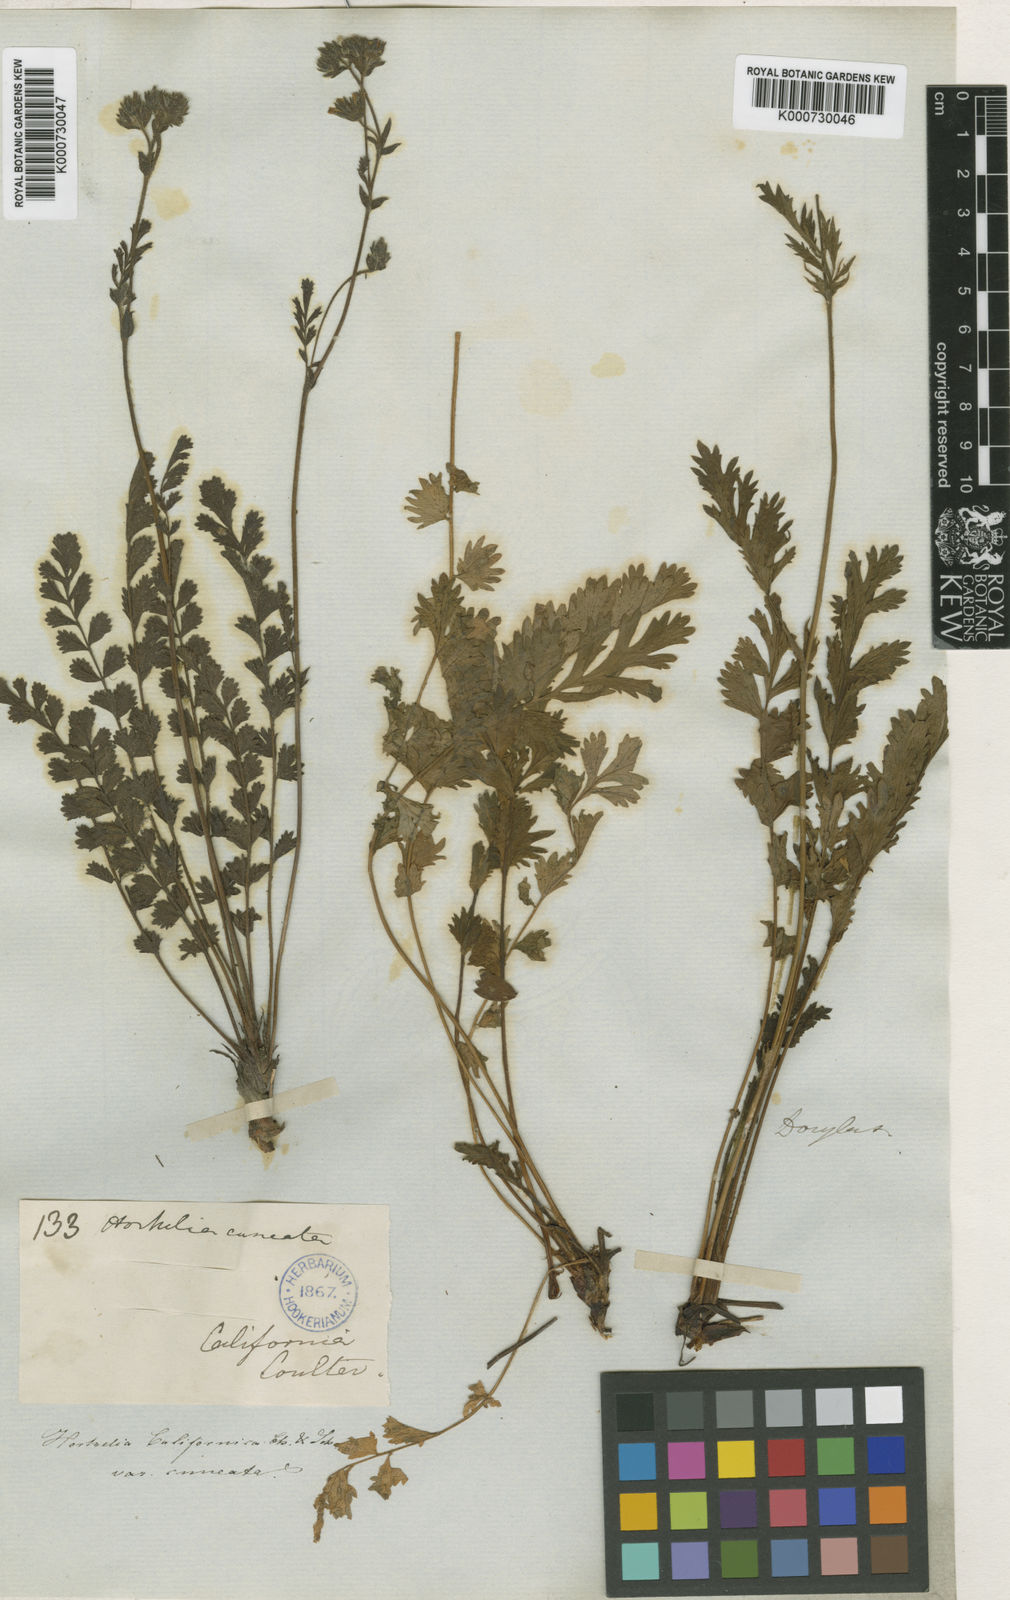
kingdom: Plantae
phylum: Tracheophyta
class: Magnoliopsida
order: Rosales
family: Rosaceae
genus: Potentilla
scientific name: Potentilla lindleyi
